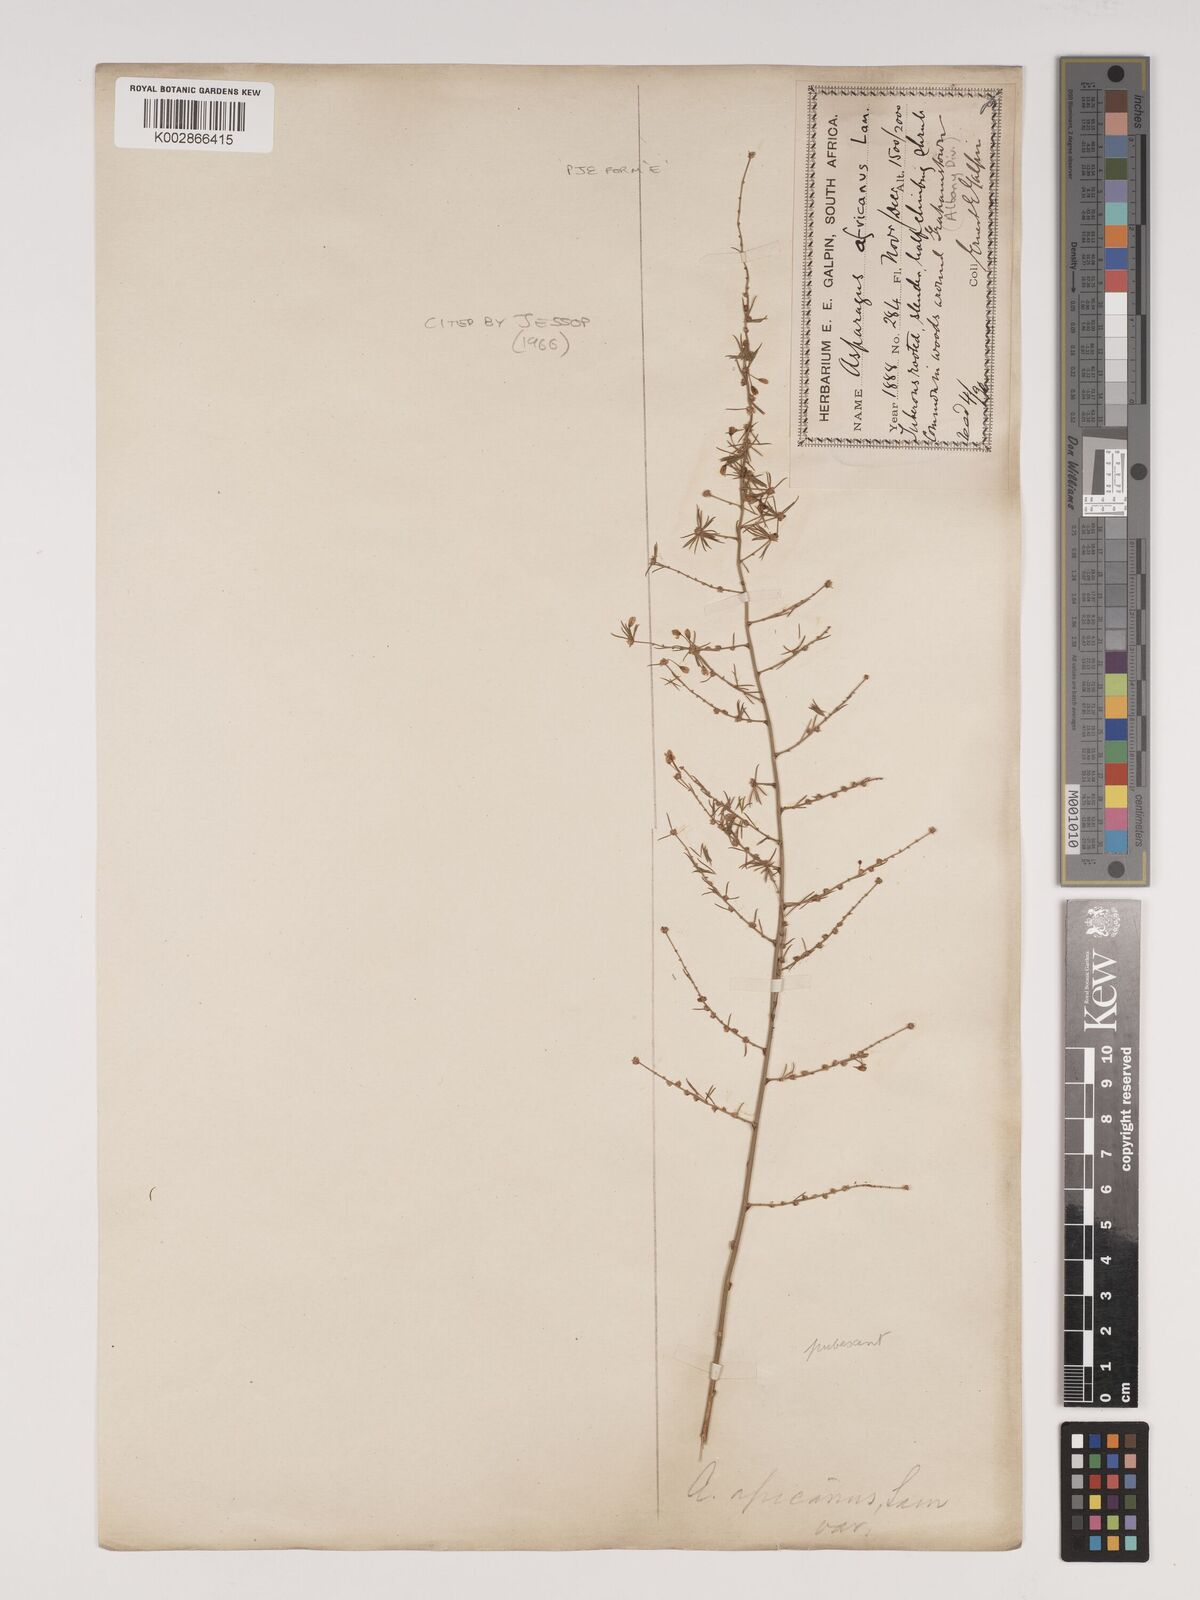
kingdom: Plantae
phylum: Tracheophyta
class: Liliopsida
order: Asparagales
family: Asparagaceae
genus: Asparagus
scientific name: Asparagus africanus
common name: Asparagus-fern
